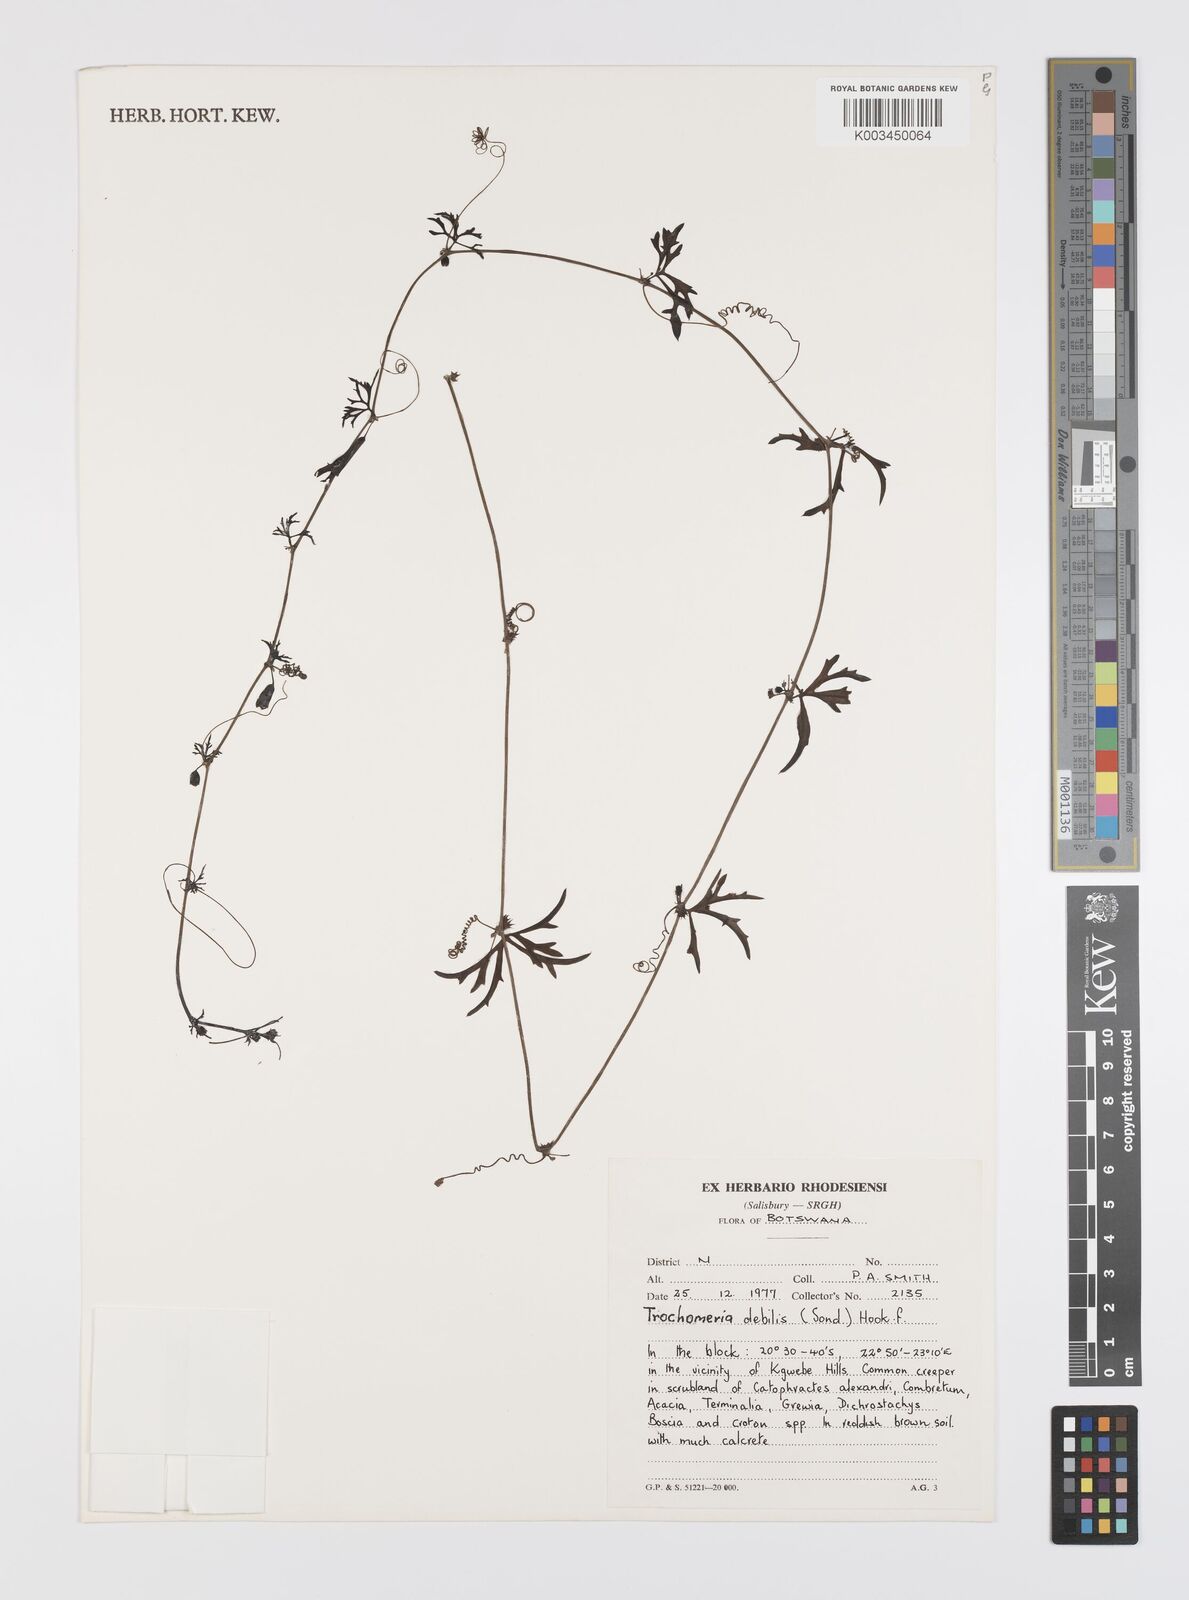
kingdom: Plantae
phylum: Tracheophyta
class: Magnoliopsida
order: Cucurbitales
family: Cucurbitaceae
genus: Trochomeria
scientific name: Trochomeria debilis
